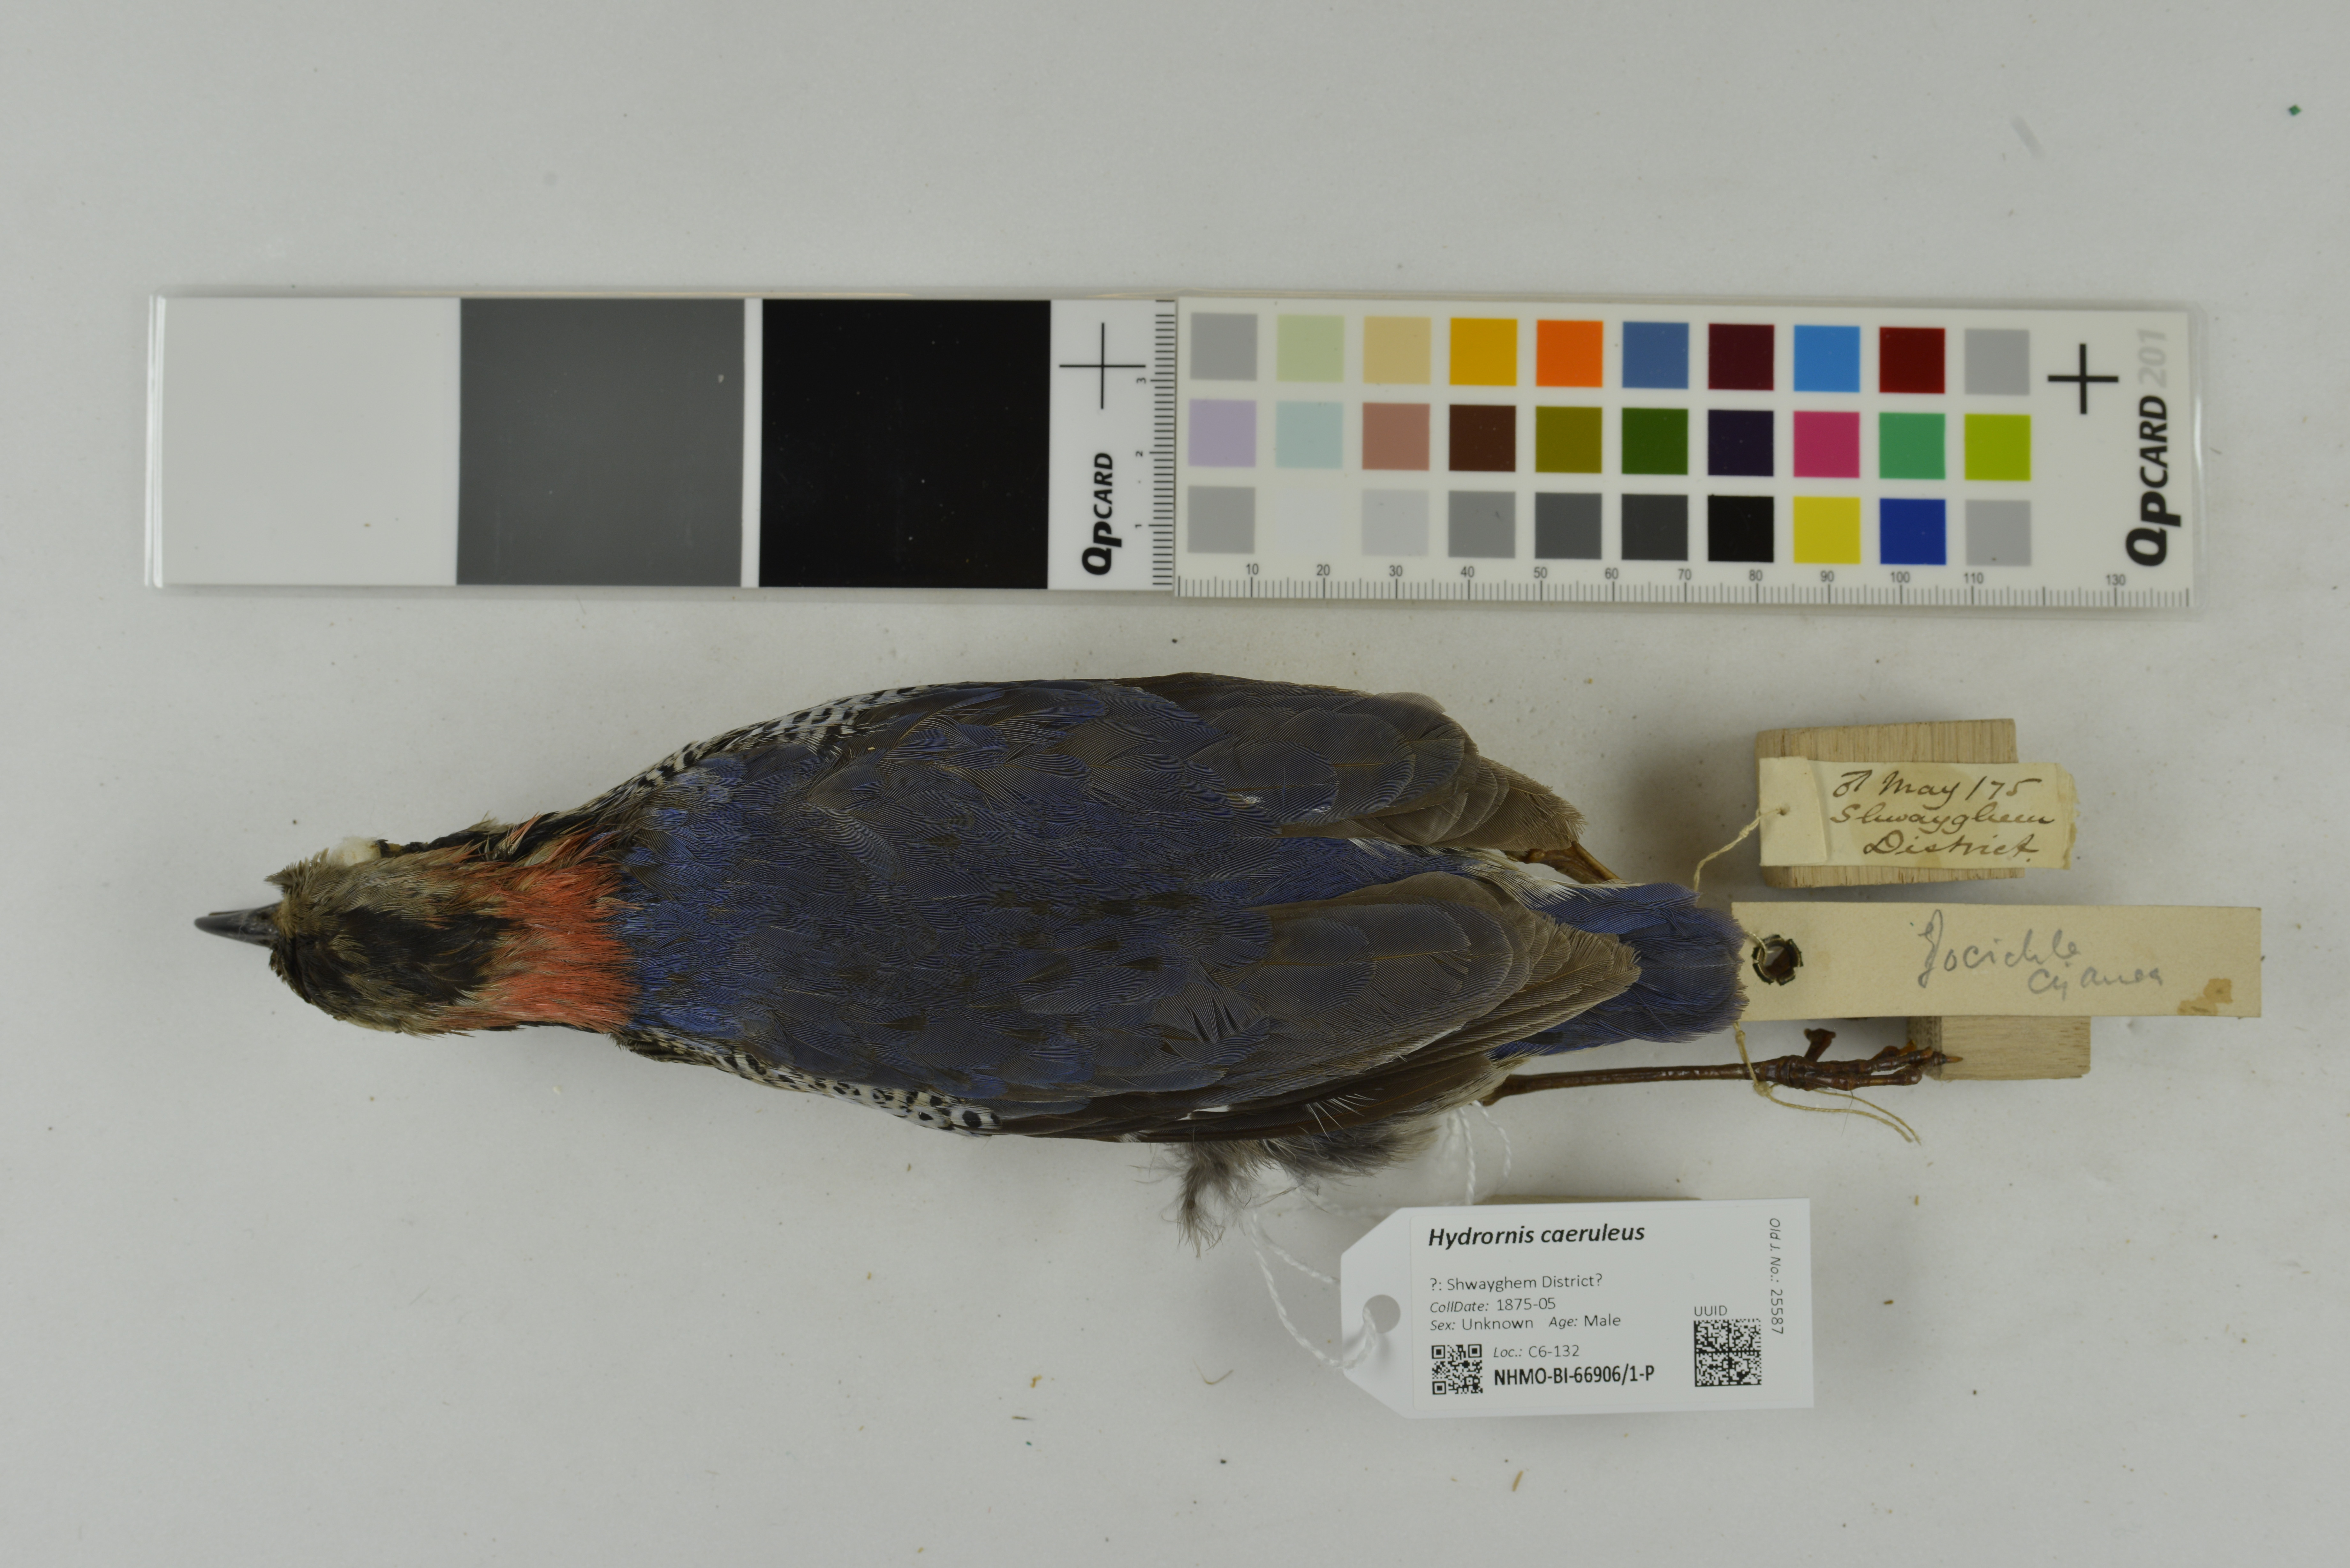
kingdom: Animalia
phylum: Chordata
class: Aves
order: Passeriformes
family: Pittidae
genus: Pitta
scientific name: Pitta caerulea
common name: Giant pitta
